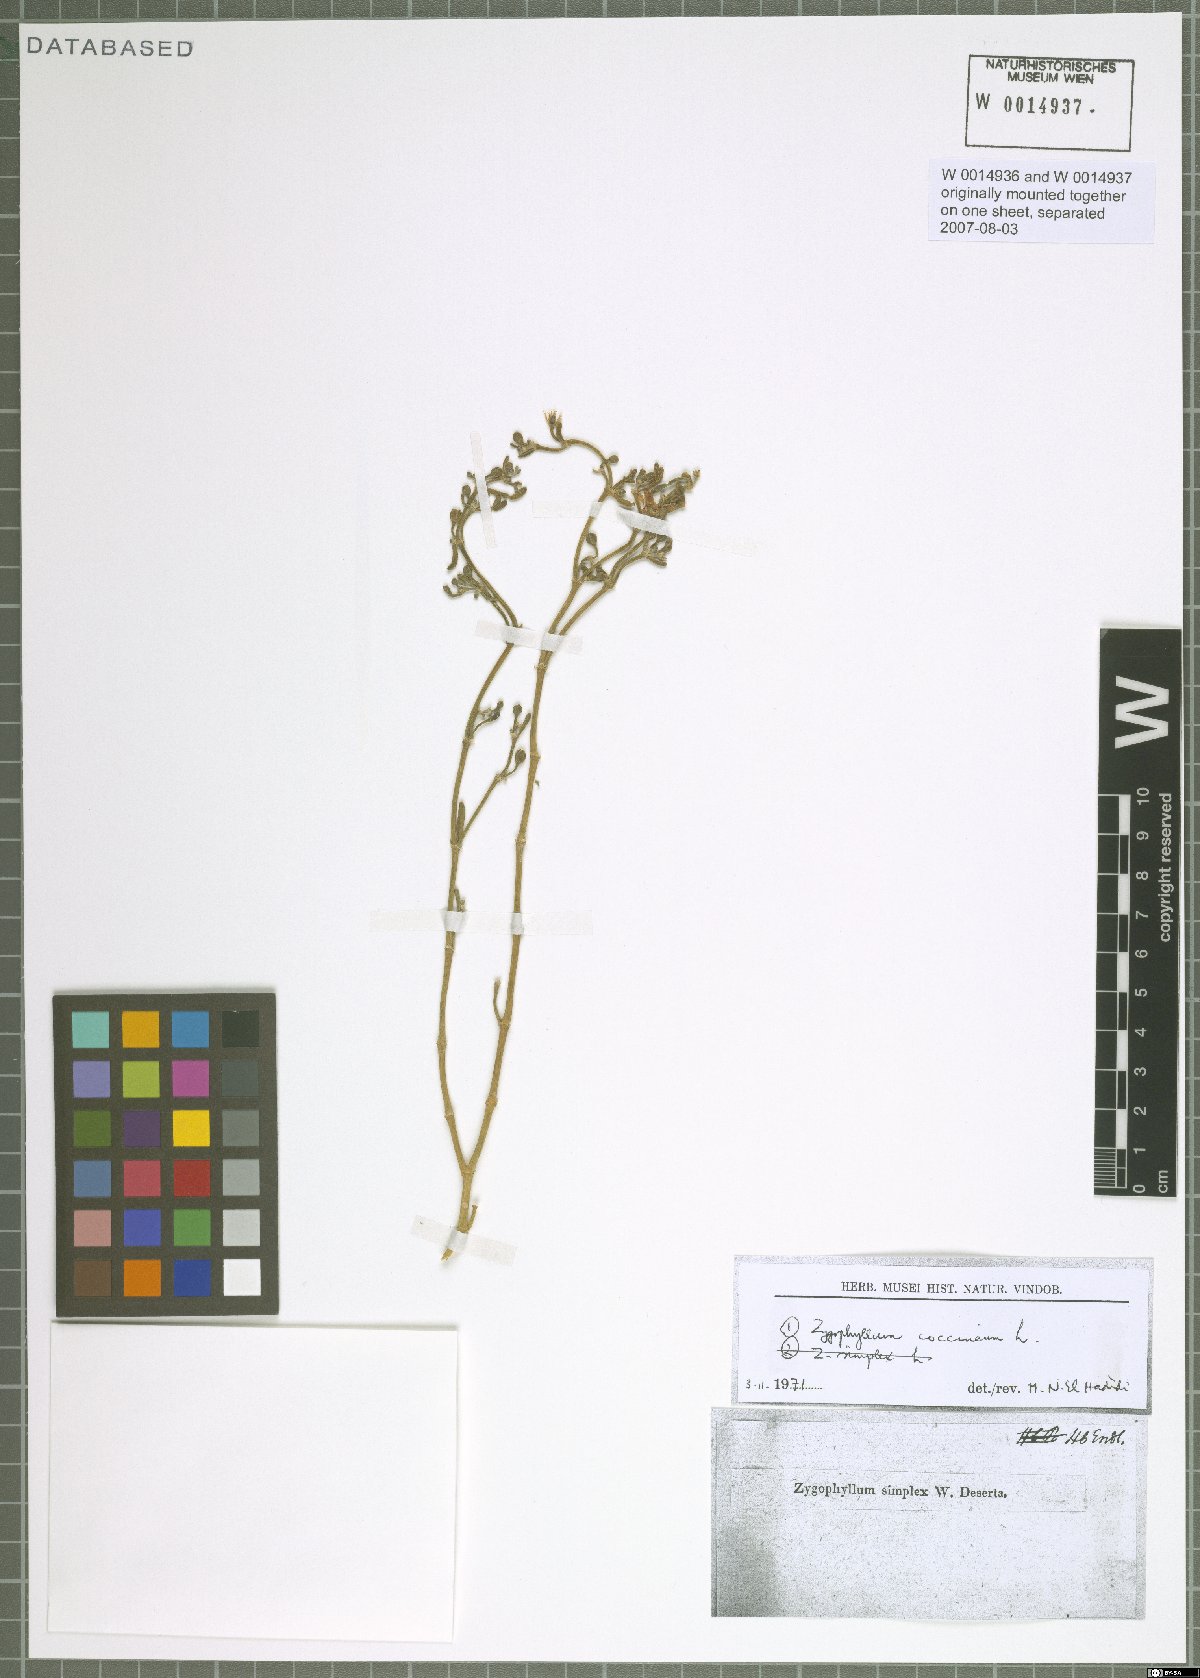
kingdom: Plantae
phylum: Tracheophyta
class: Magnoliopsida
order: Zygophyllales
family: Zygophyllaceae
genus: Tetraena
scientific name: Tetraena coccinea
